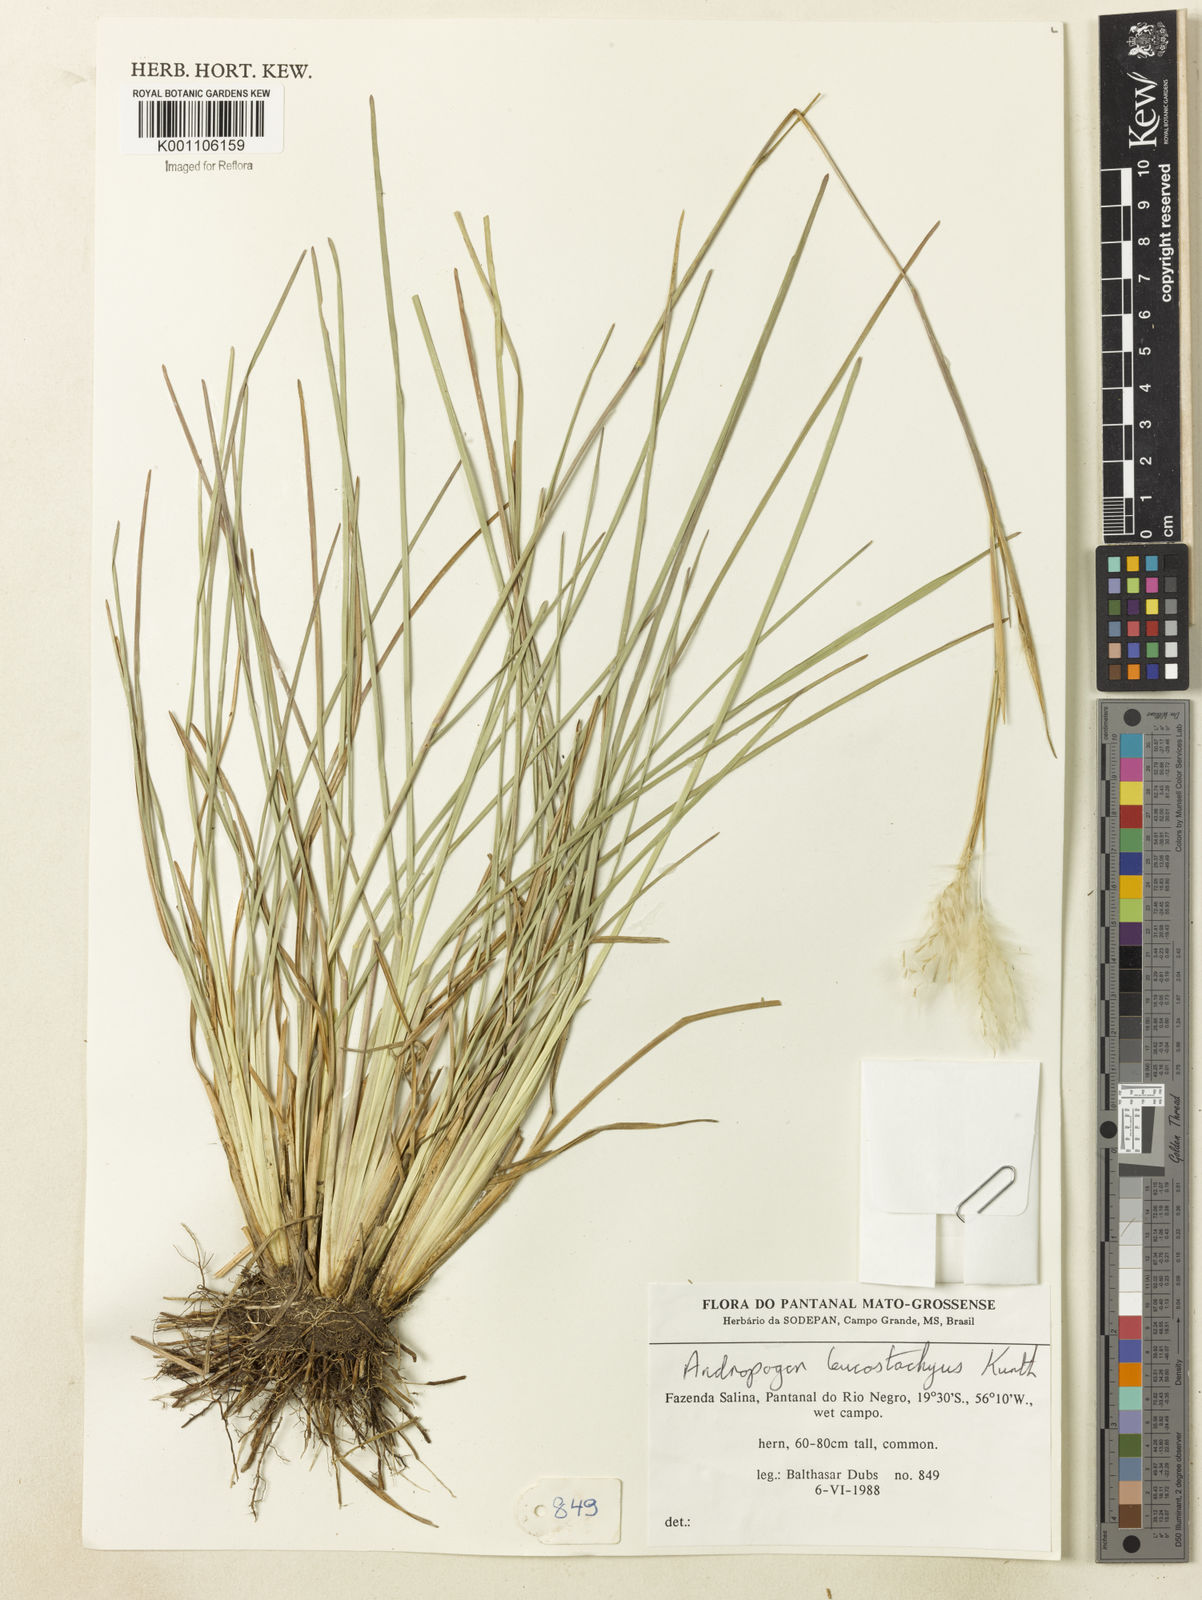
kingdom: Plantae
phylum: Tracheophyta
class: Liliopsida
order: Poales
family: Poaceae
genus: Andropogon
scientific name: Andropogon leucostachyus
